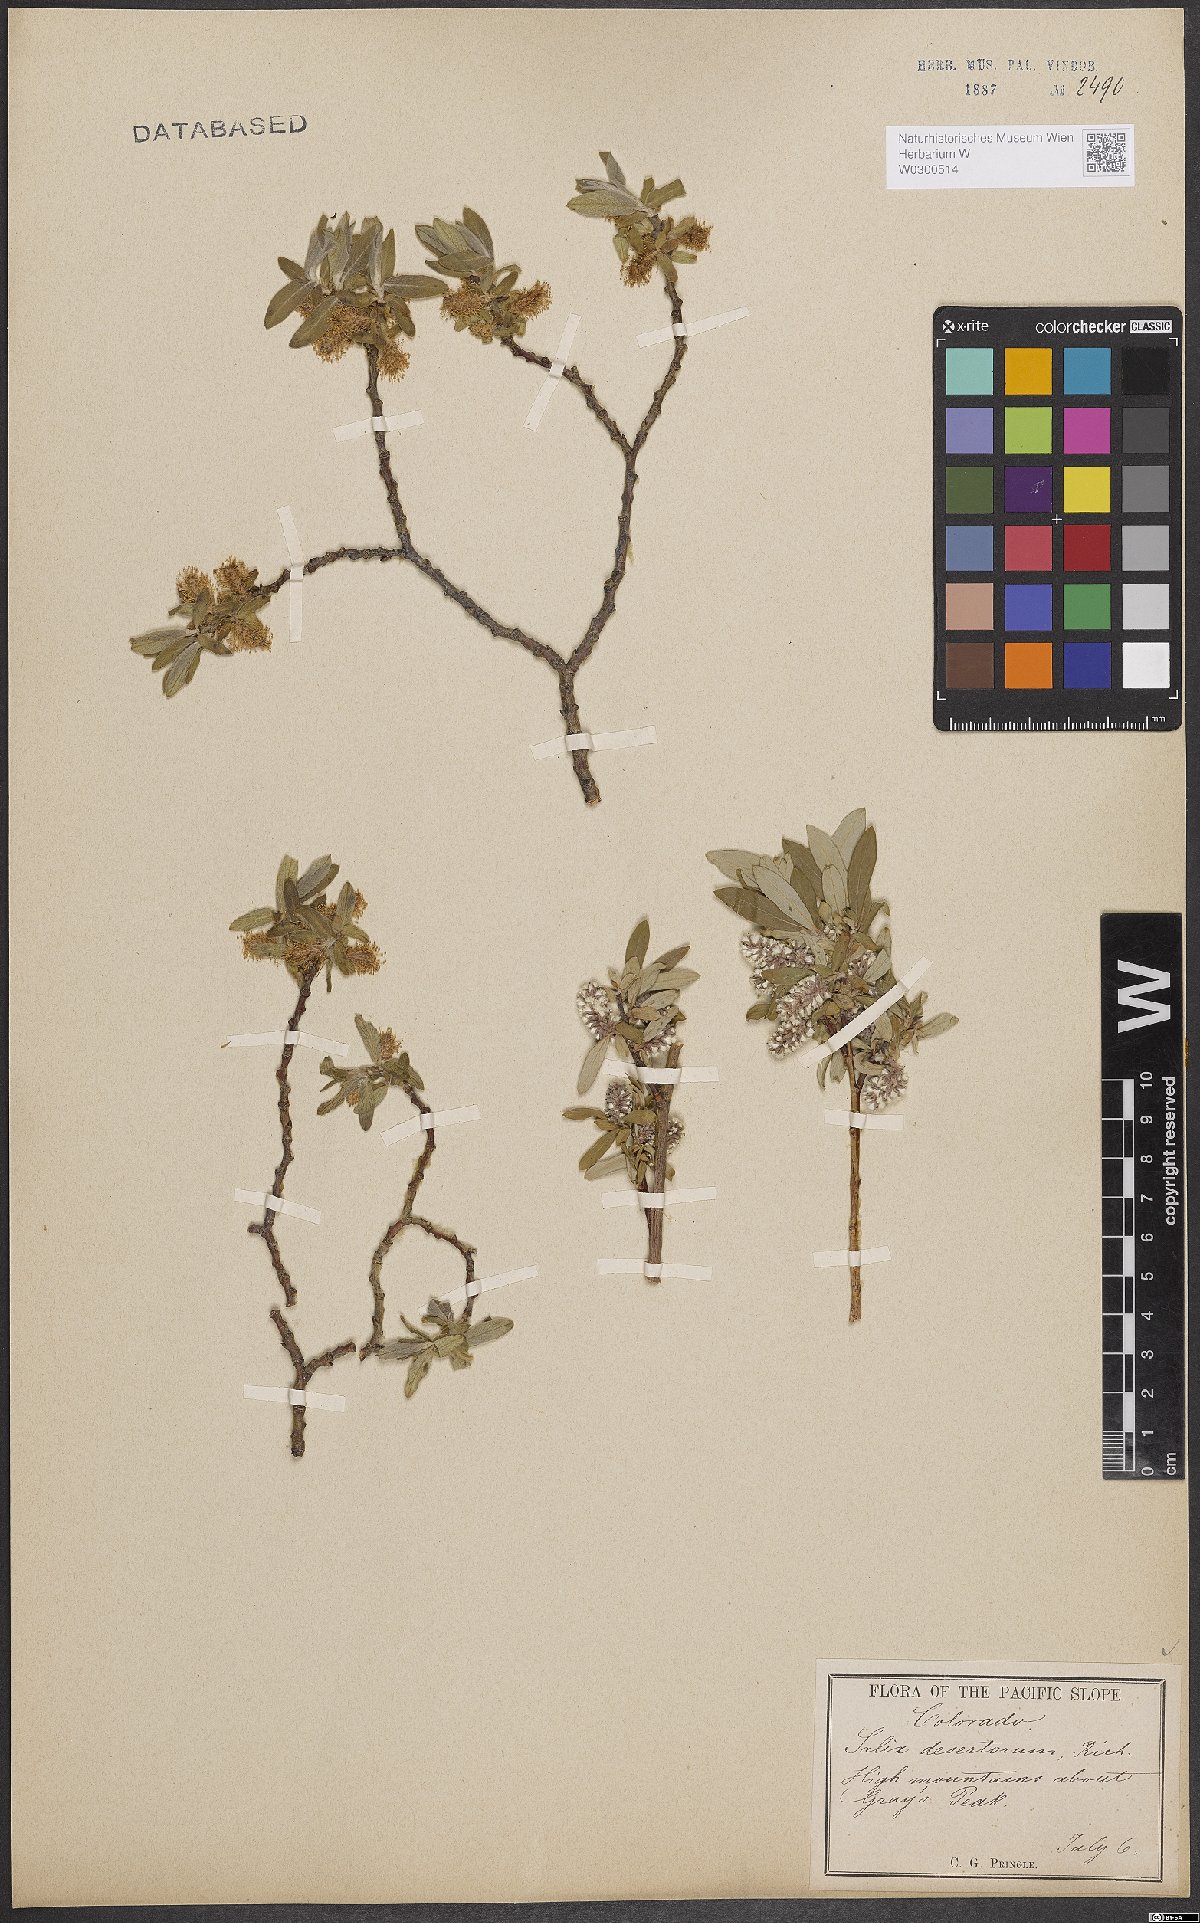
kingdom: Plantae
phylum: Tracheophyta
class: Magnoliopsida
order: Malpighiales
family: Salicaceae
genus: Salix
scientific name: Salix glauca
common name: Glaucous willow
